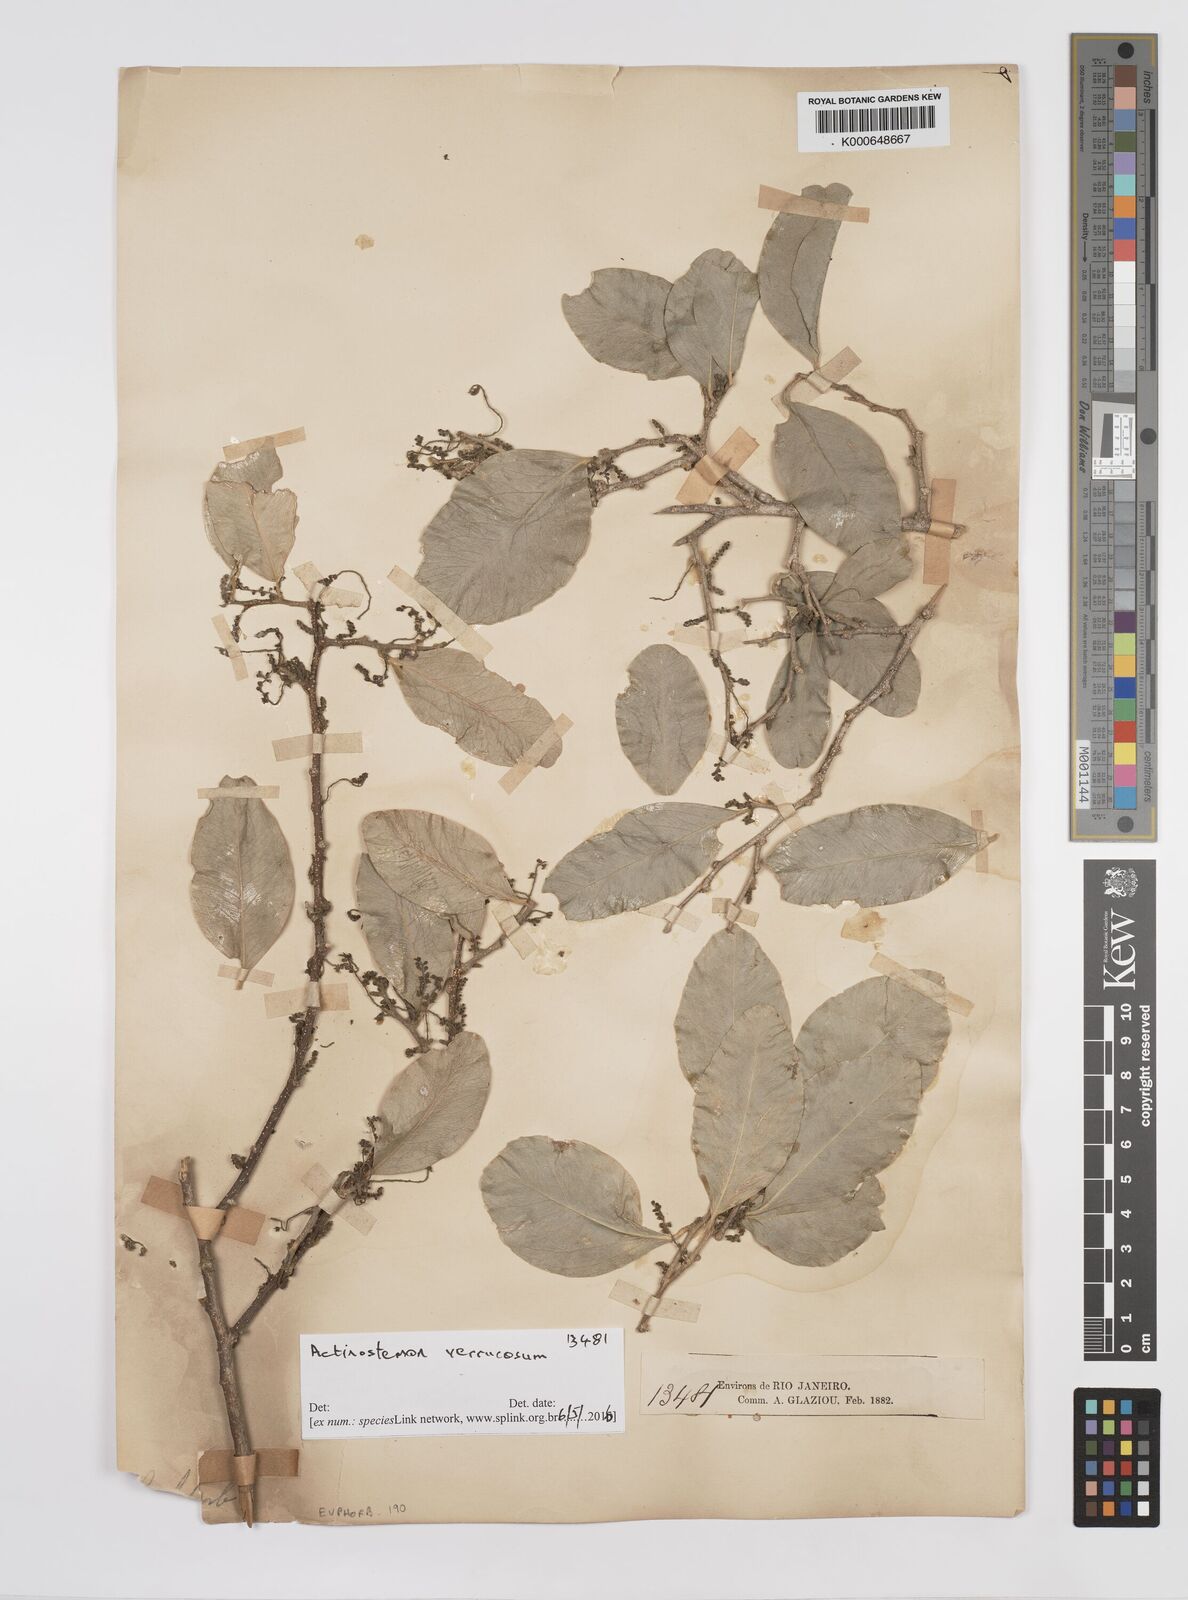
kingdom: Plantae
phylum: Tracheophyta
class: Magnoliopsida
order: Malpighiales
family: Euphorbiaceae
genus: Actinostemon
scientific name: Actinostemon verrucosus
